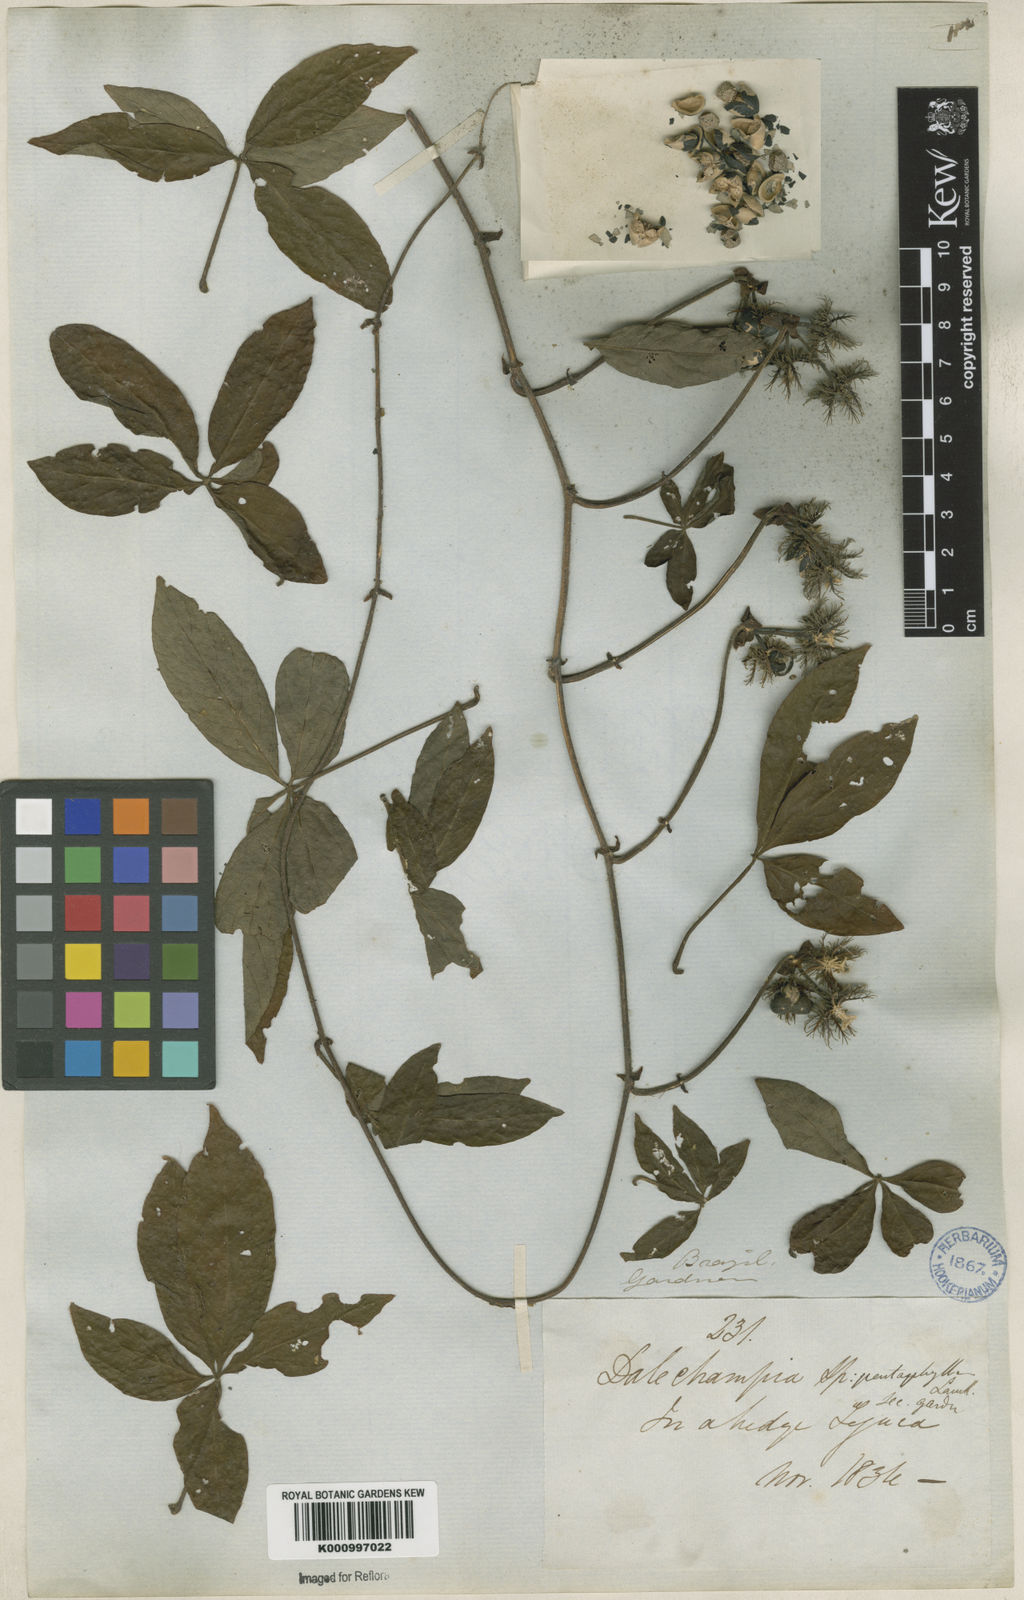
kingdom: Plantae
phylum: Tracheophyta
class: Magnoliopsida
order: Malpighiales
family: Euphorbiaceae
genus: Dalechampia
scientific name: Dalechampia alata
